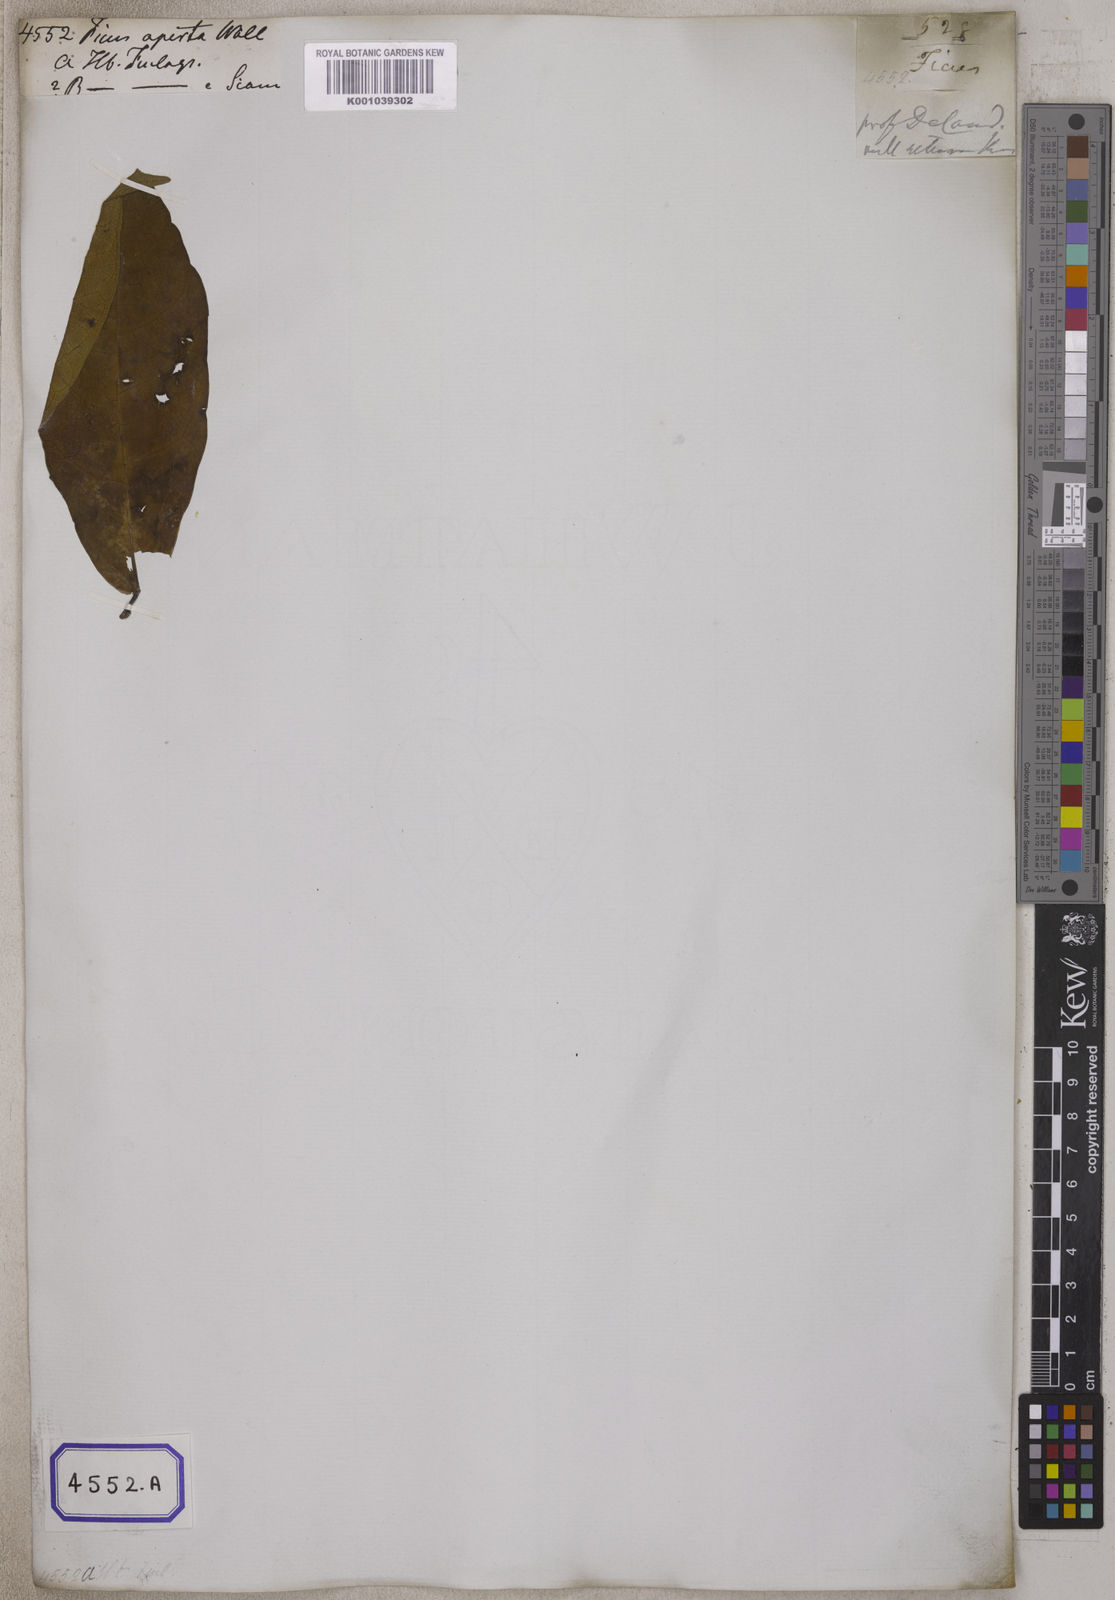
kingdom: Plantae
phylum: Tracheophyta
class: Magnoliopsida
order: Rosales
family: Moraceae
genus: Ficus
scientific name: Ficus
